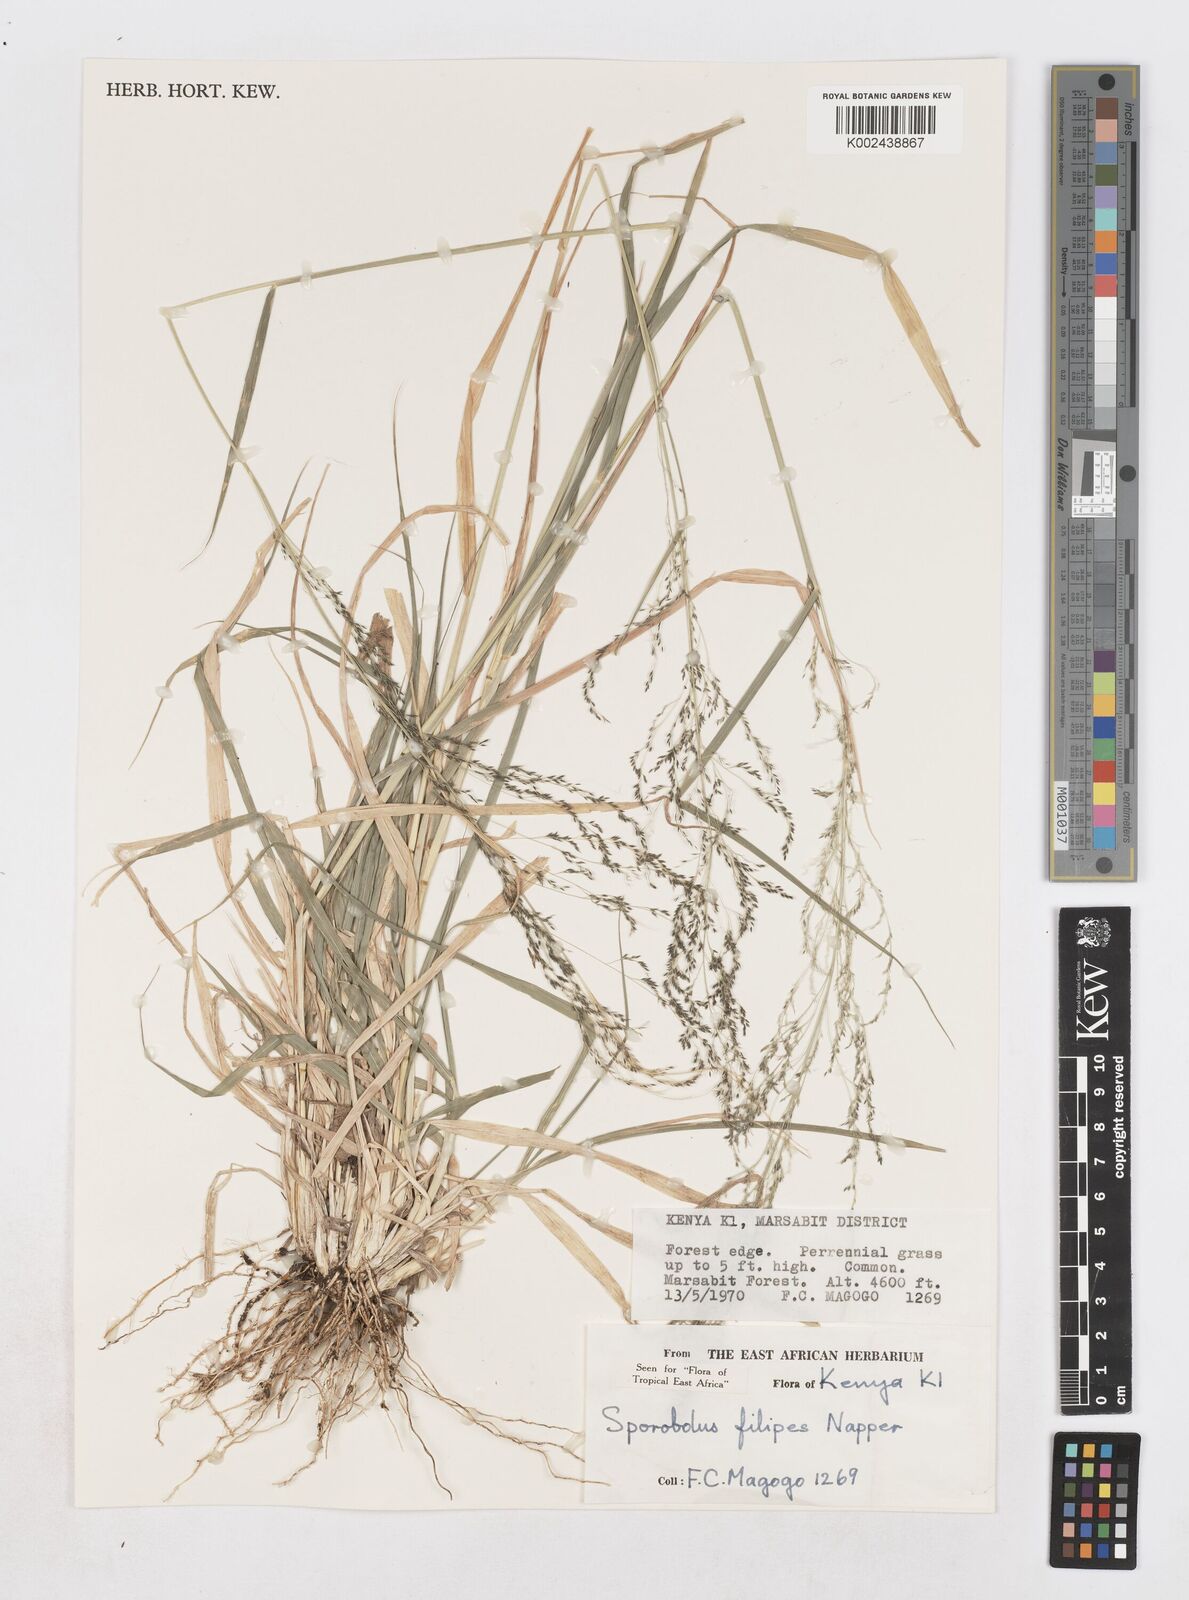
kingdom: Plantae
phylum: Tracheophyta
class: Liliopsida
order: Poales
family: Poaceae
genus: Sporobolus
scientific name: Sporobolus agrostoides
